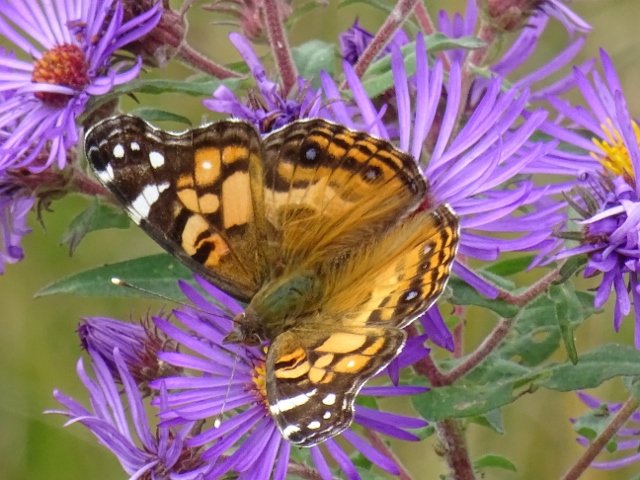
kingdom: Animalia
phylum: Arthropoda
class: Insecta
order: Lepidoptera
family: Nymphalidae
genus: Vanessa
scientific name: Vanessa virginiensis
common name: American Lady
